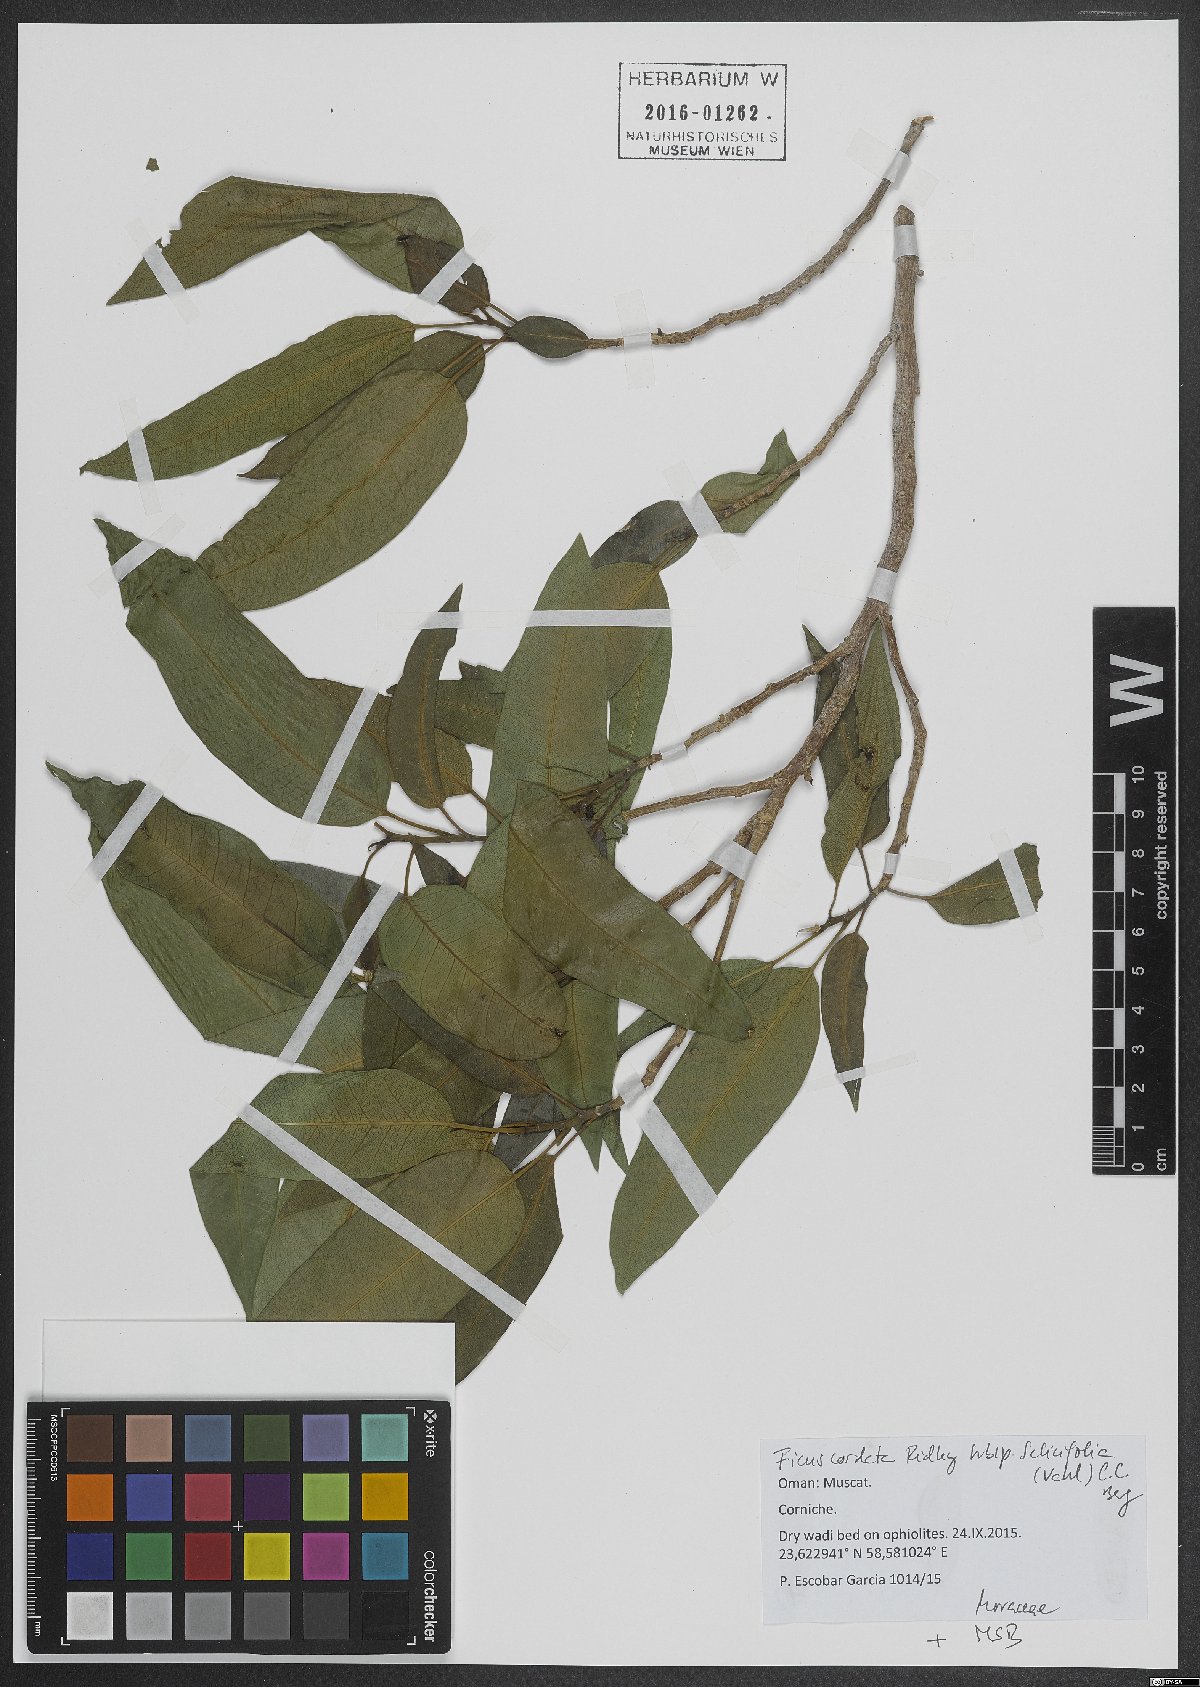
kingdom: Plantae
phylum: Tracheophyta
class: Magnoliopsida
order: Rosales
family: Moraceae
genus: Ficus
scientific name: Ficus salicifolia
